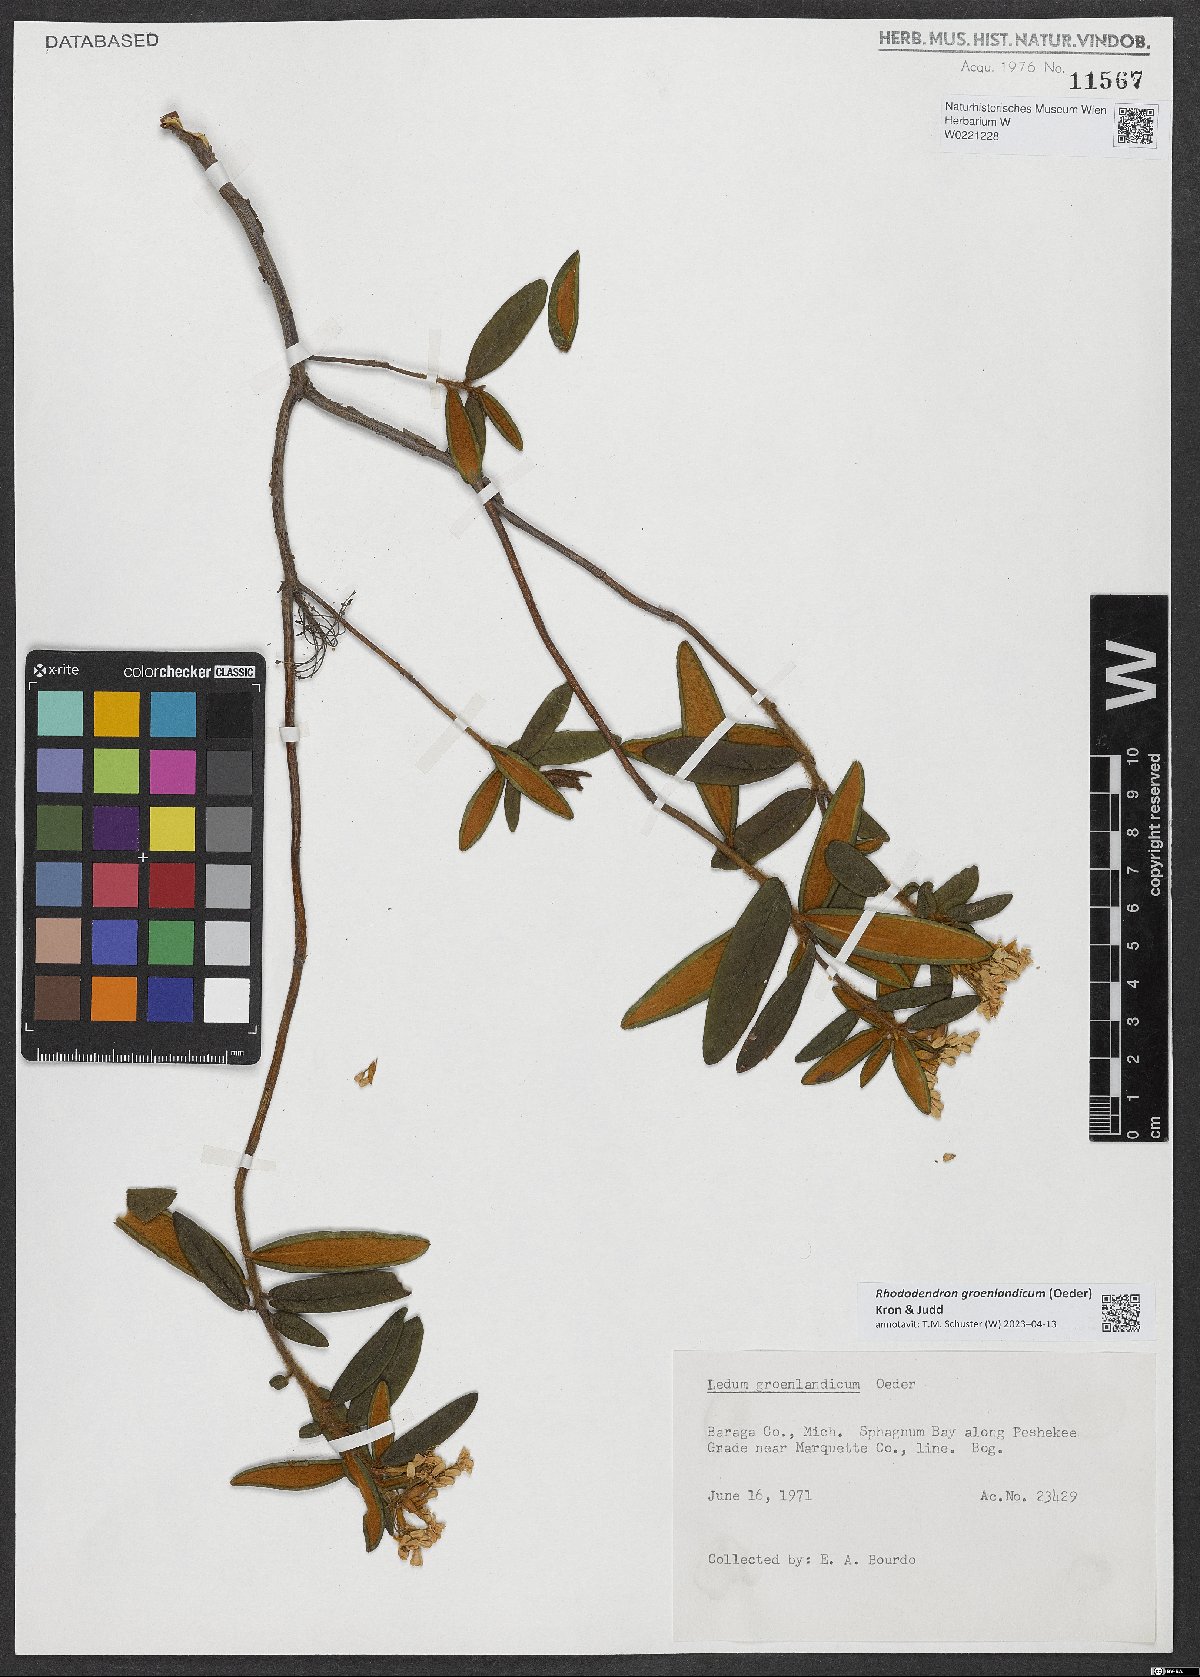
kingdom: Plantae
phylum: Tracheophyta
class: Magnoliopsida
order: Ericales
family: Ericaceae
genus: Rhododendron
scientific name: Rhododendron groenlandicum
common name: Bog labrador tea
